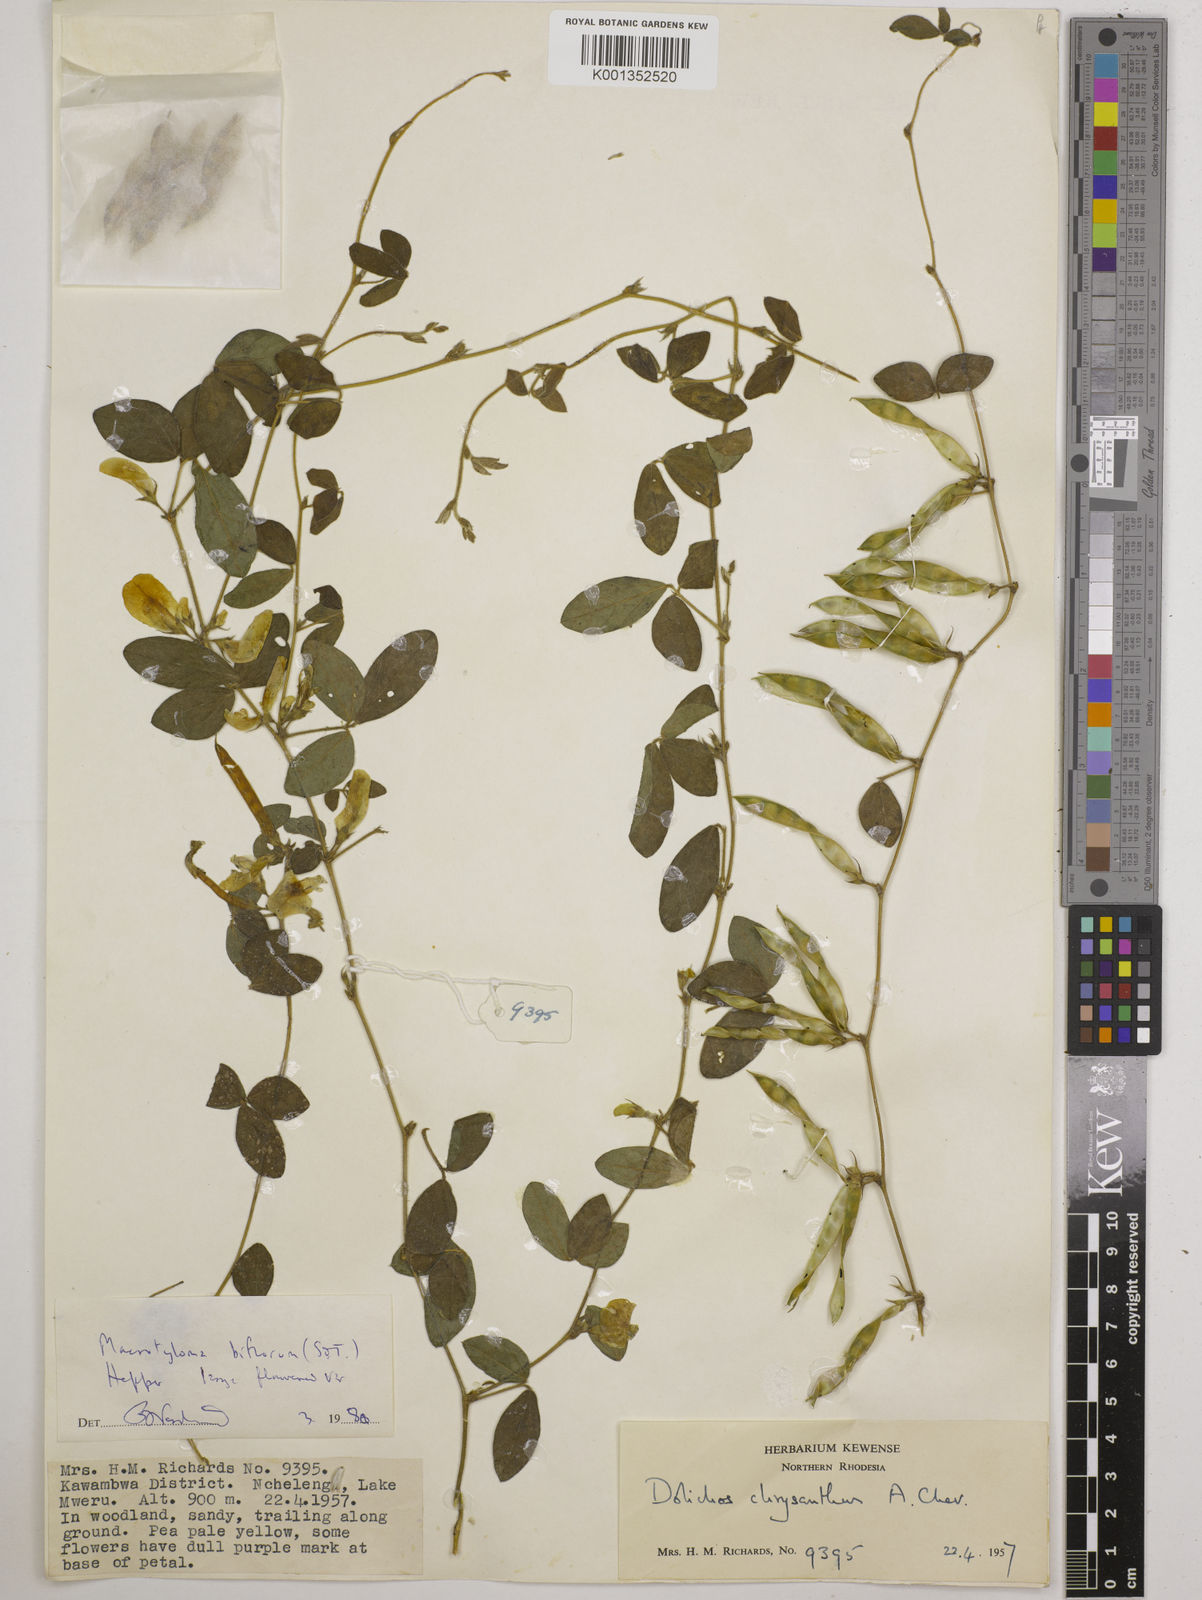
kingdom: Plantae
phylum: Tracheophyta
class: Magnoliopsida
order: Fabales
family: Fabaceae
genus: Macrotyloma
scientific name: Macrotyloma biflorum
